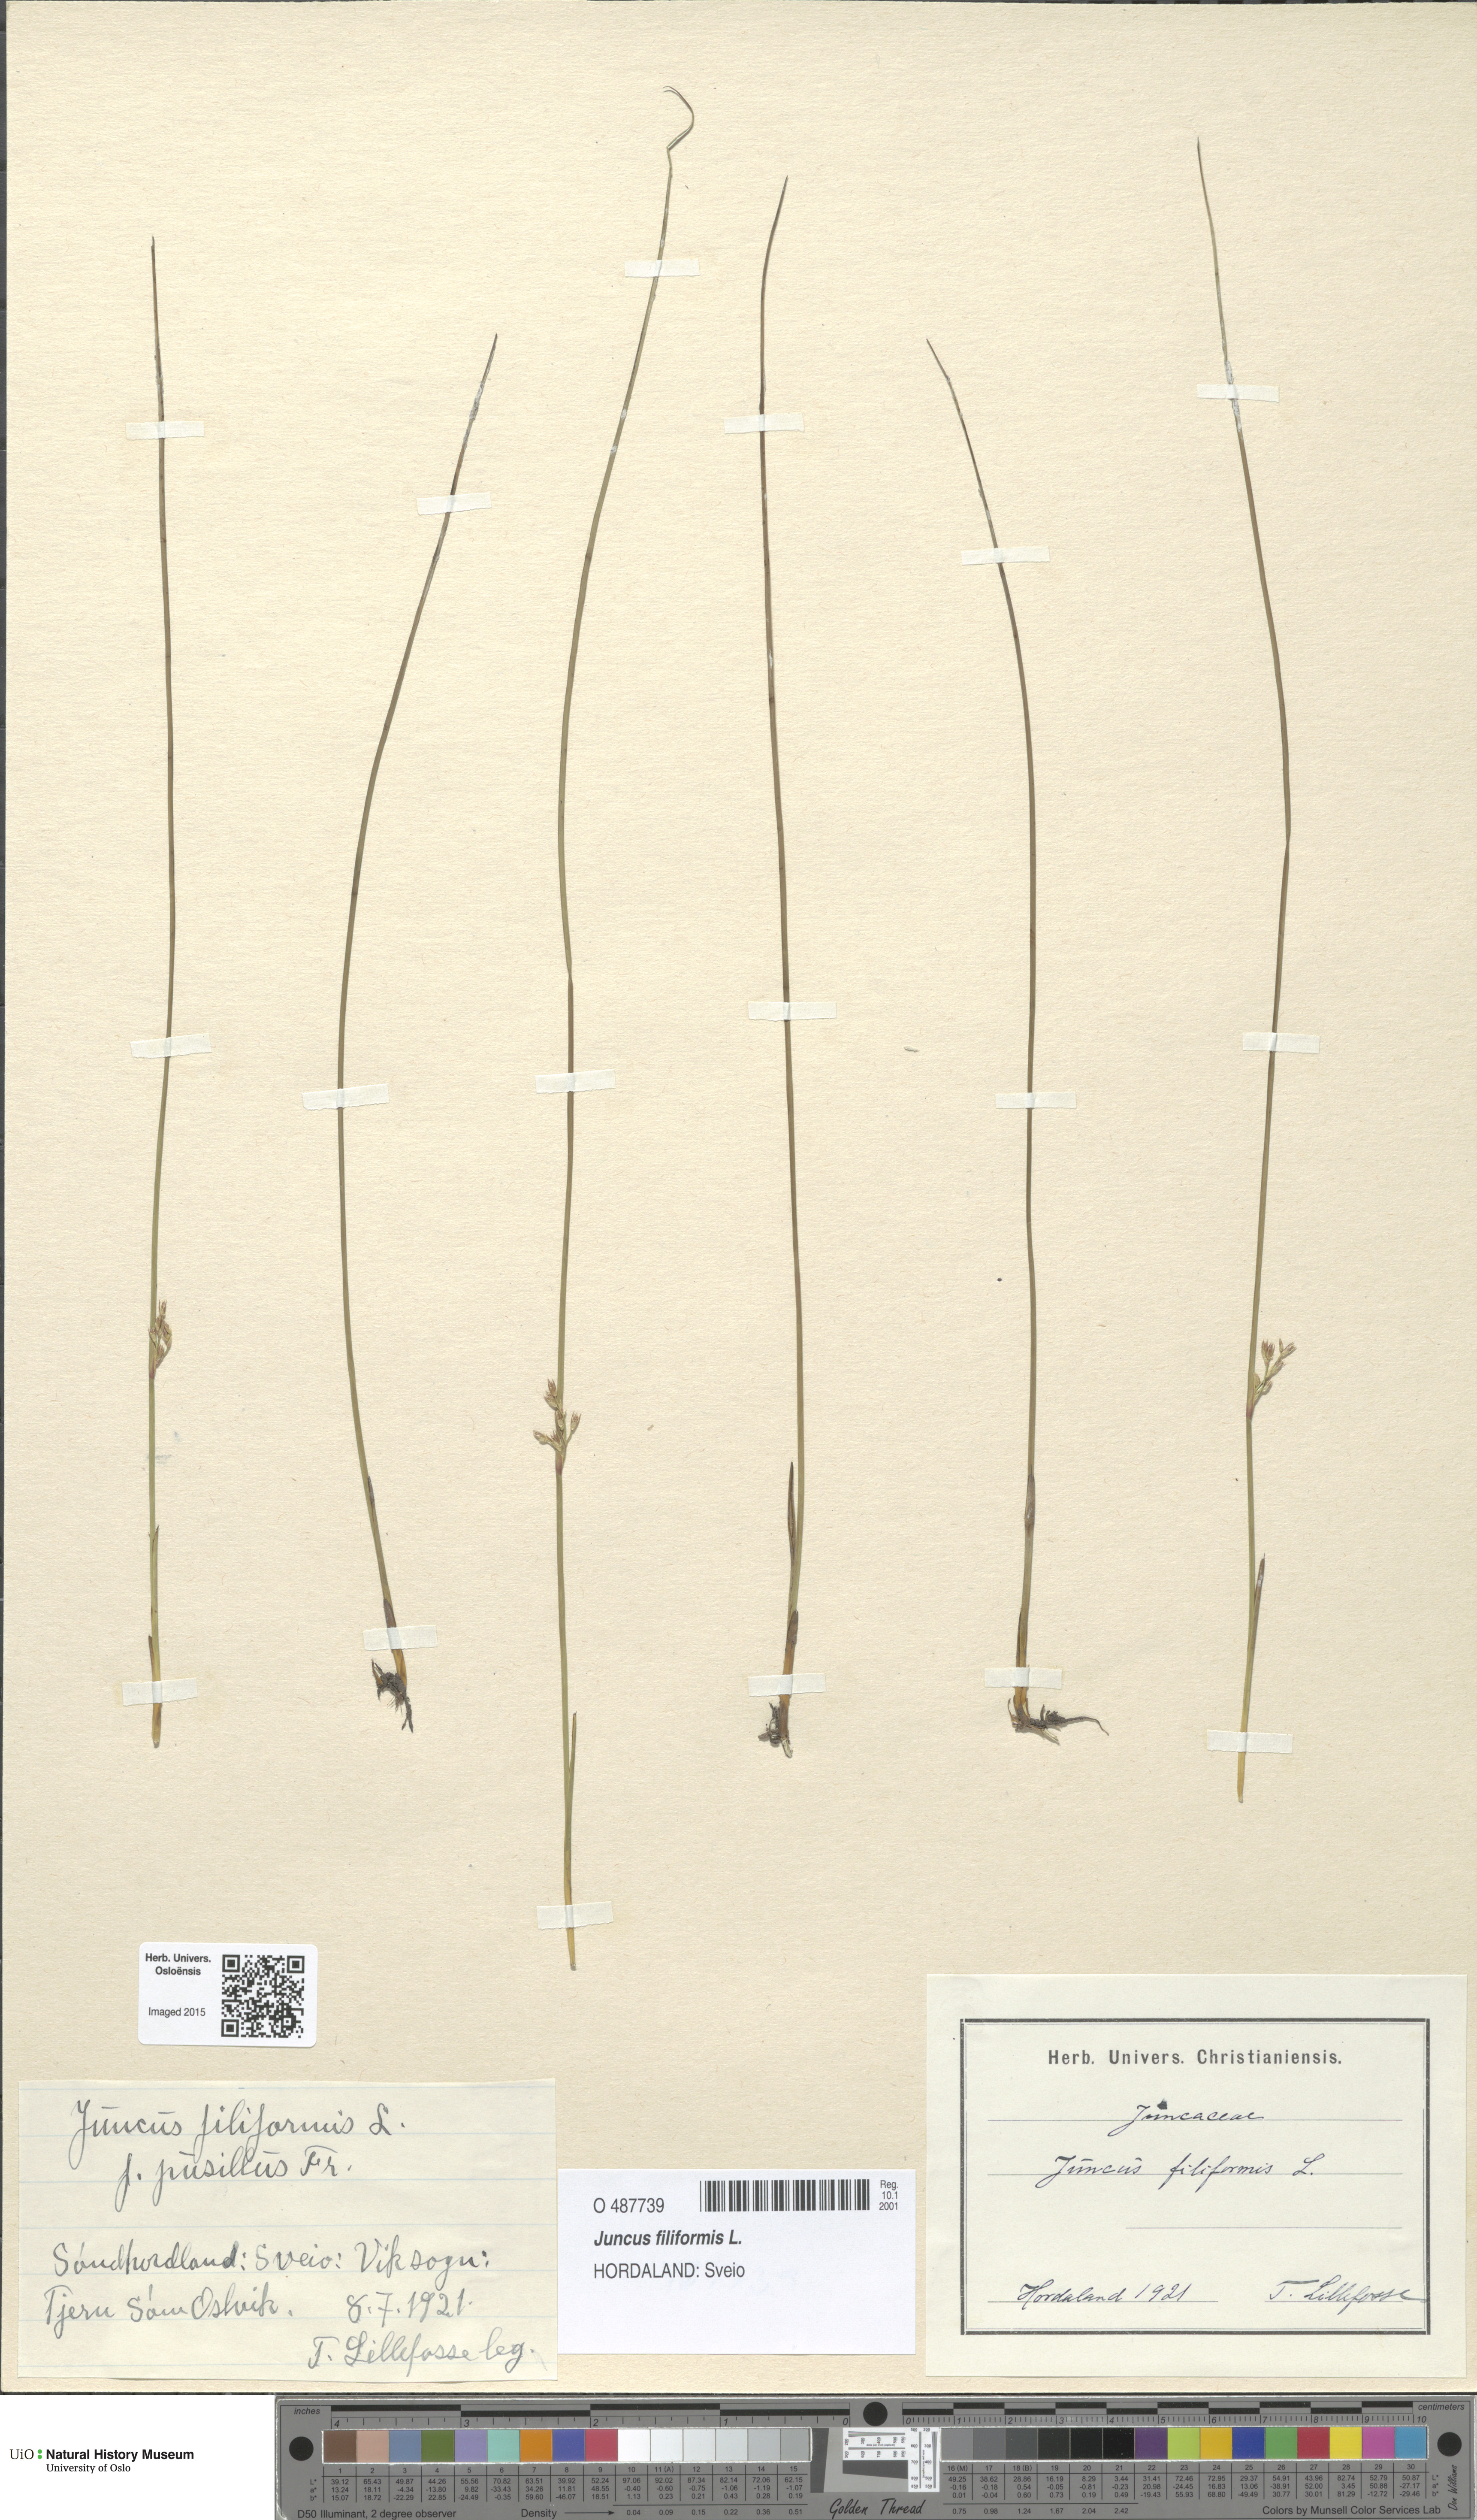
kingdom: Plantae
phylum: Tracheophyta
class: Liliopsida
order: Poales
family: Juncaceae
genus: Juncus
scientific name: Juncus filiformis
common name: Thread rush
